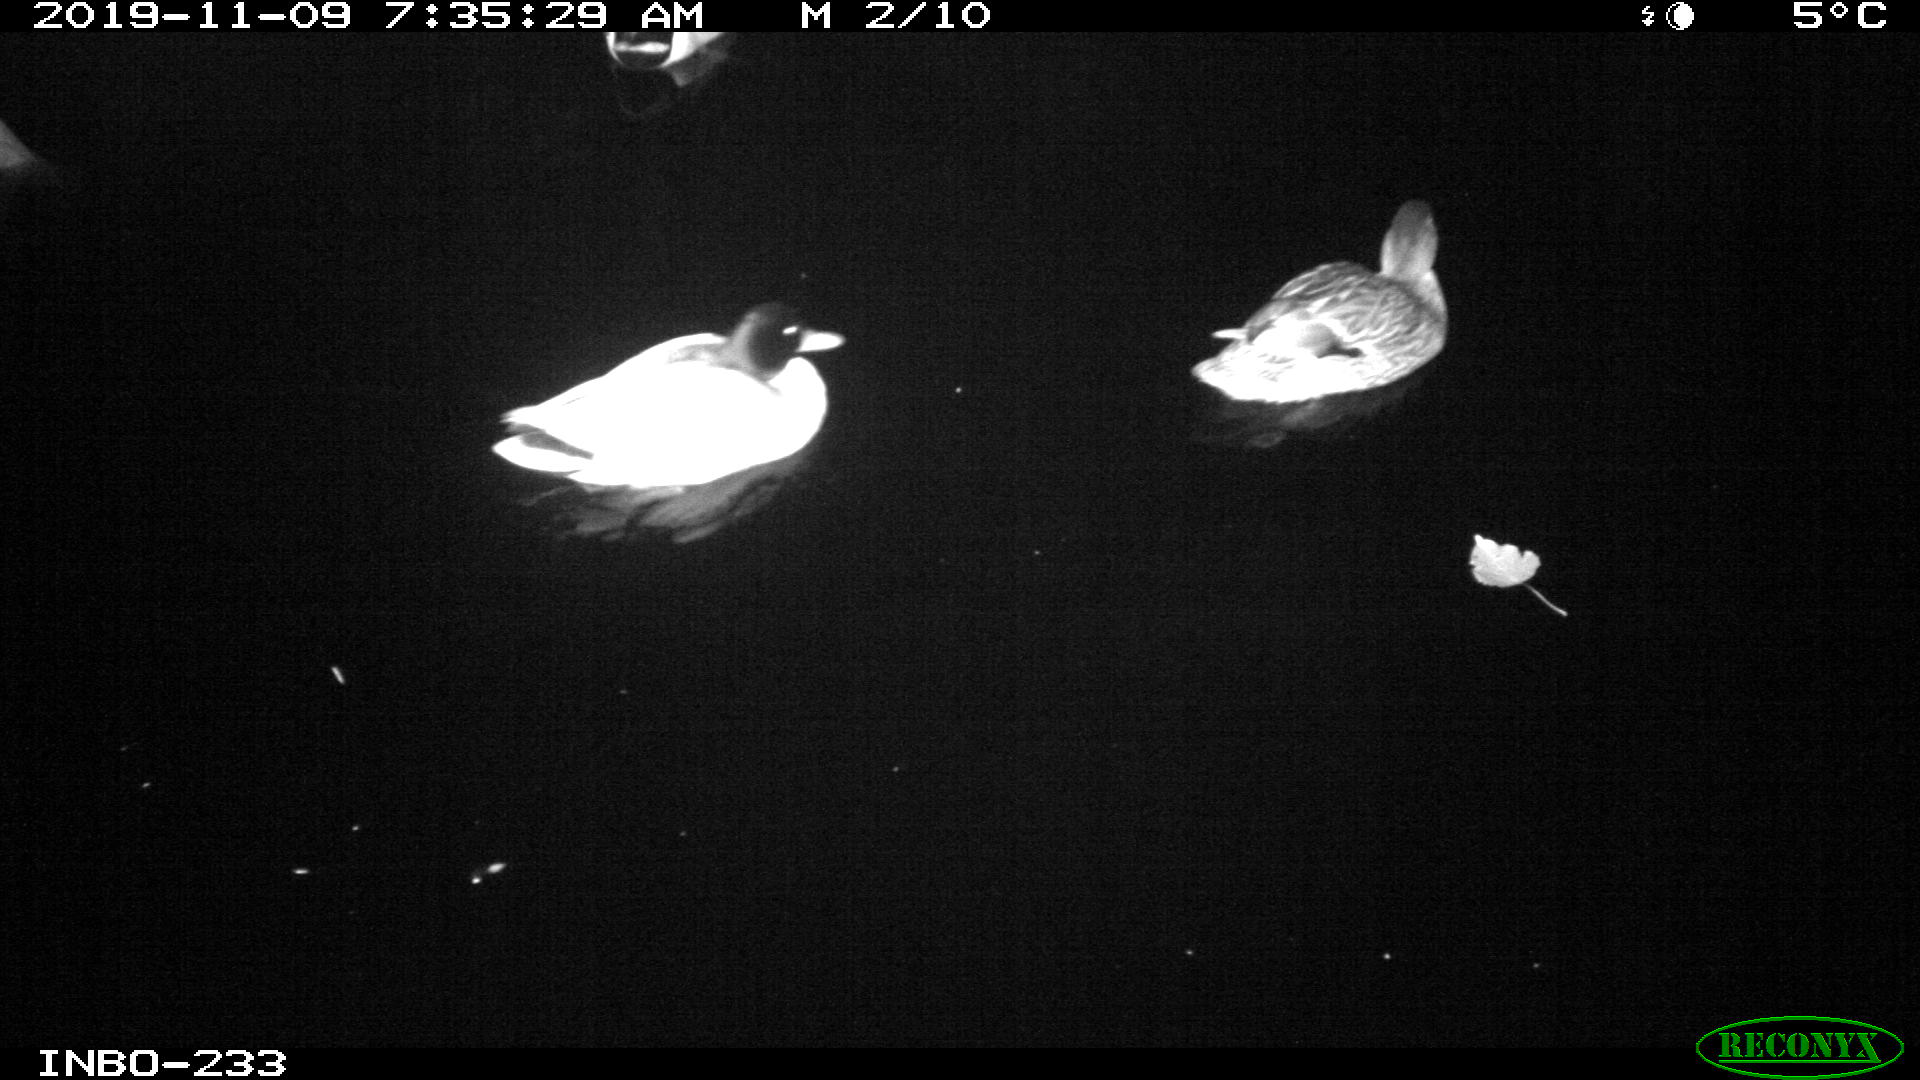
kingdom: Animalia
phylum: Chordata
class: Aves
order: Anseriformes
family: Anatidae
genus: Anas
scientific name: Anas platyrhynchos
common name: Mallard
